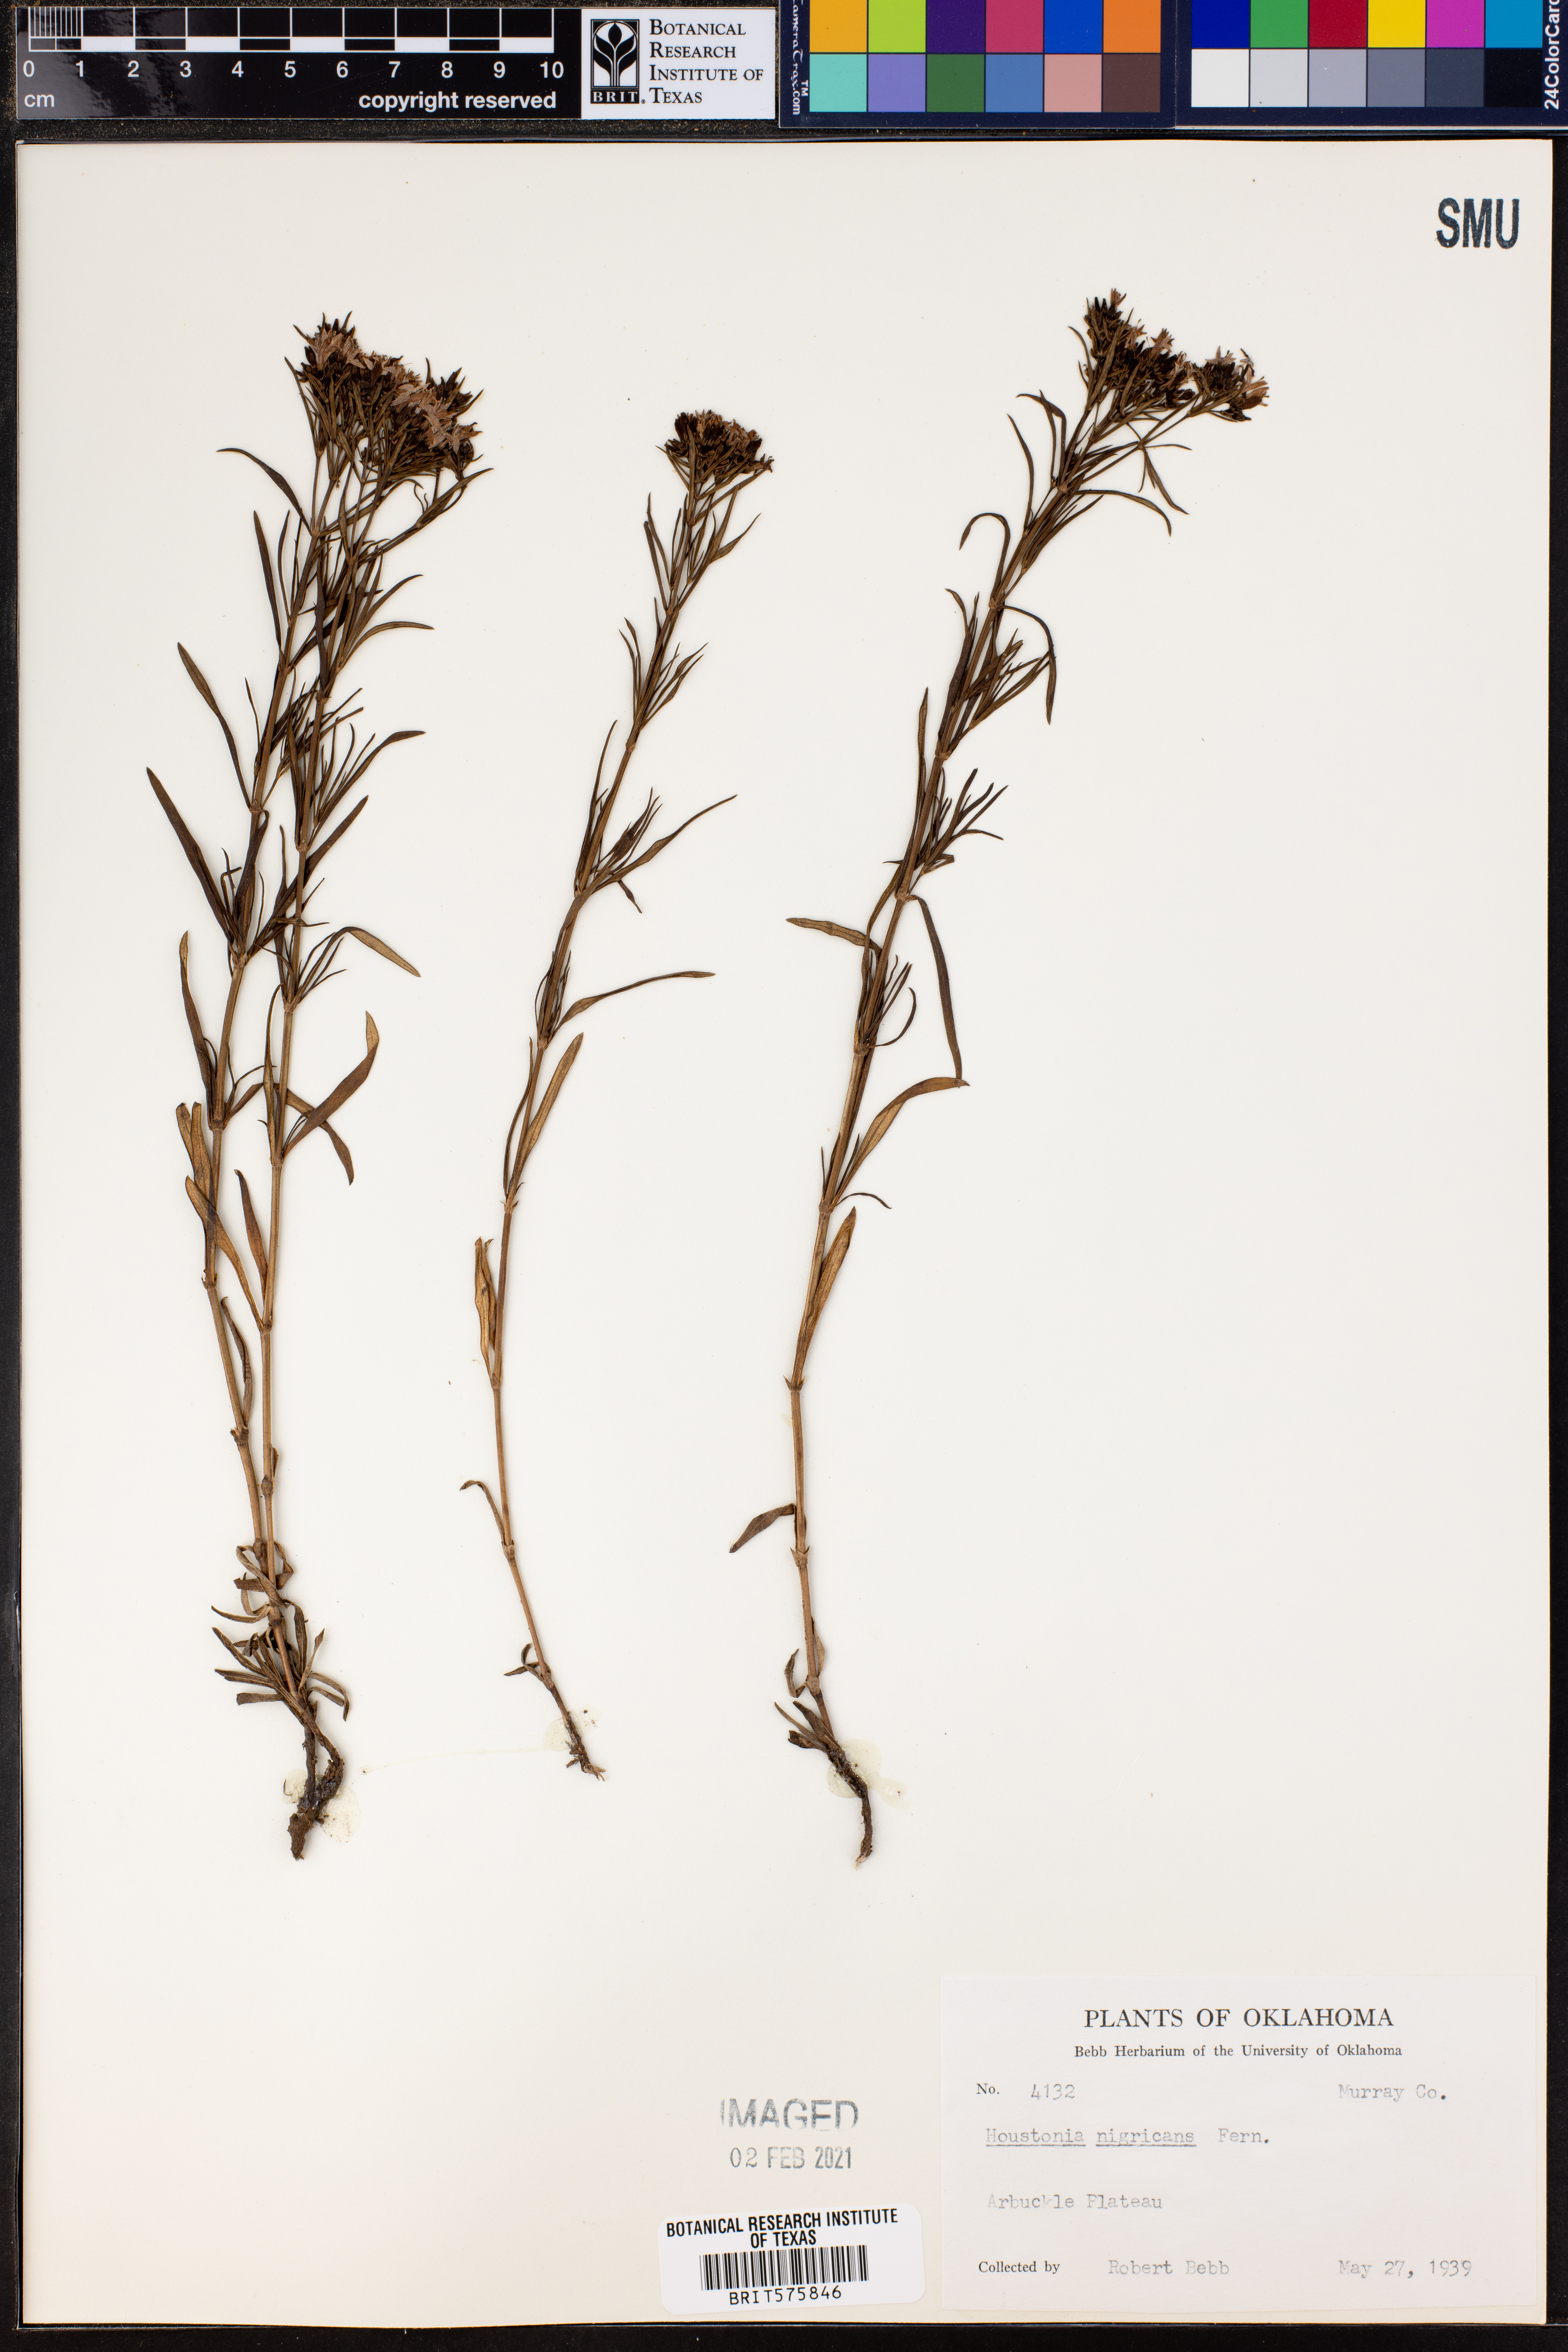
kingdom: Plantae
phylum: Tracheophyta
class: Magnoliopsida
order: Gentianales
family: Rubiaceae
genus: Stenaria
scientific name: Stenaria nigricans
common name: Diamondflowers
